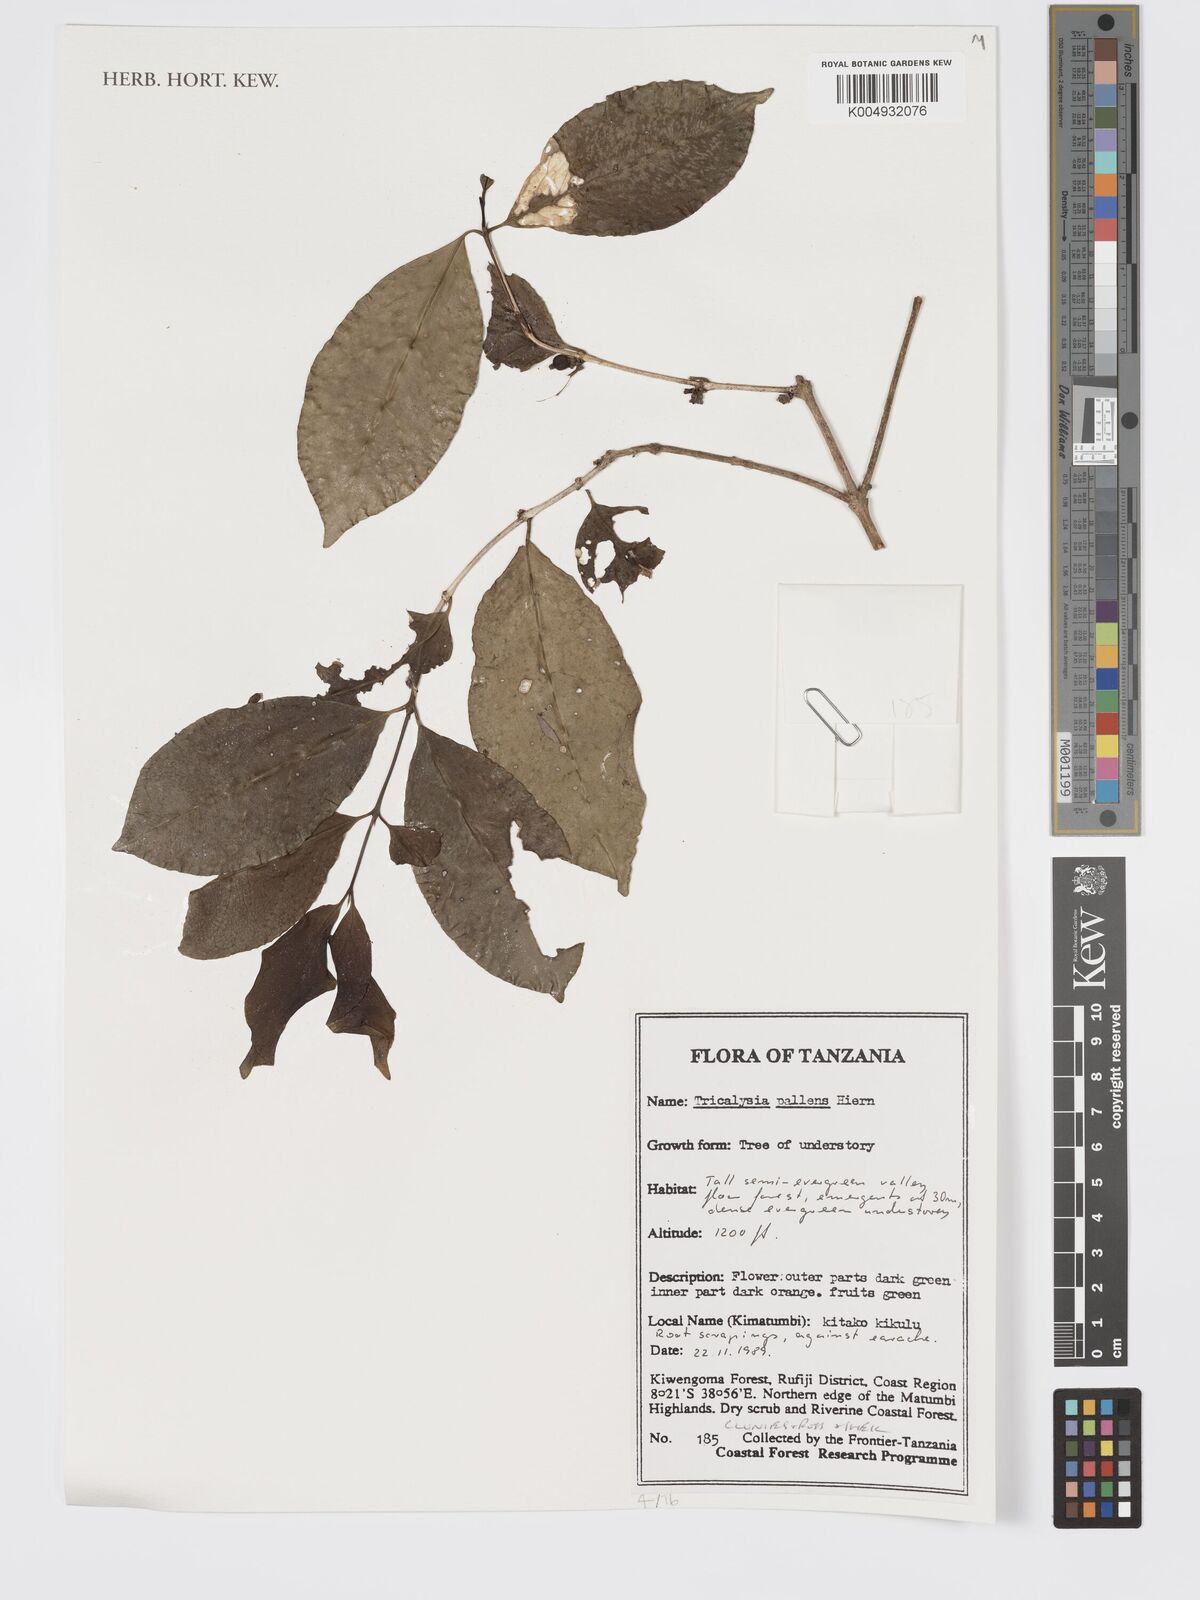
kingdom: Plantae
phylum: Tracheophyta
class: Magnoliopsida
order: Gentianales
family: Rubiaceae
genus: Tricalysia
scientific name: Tricalysia pallens
